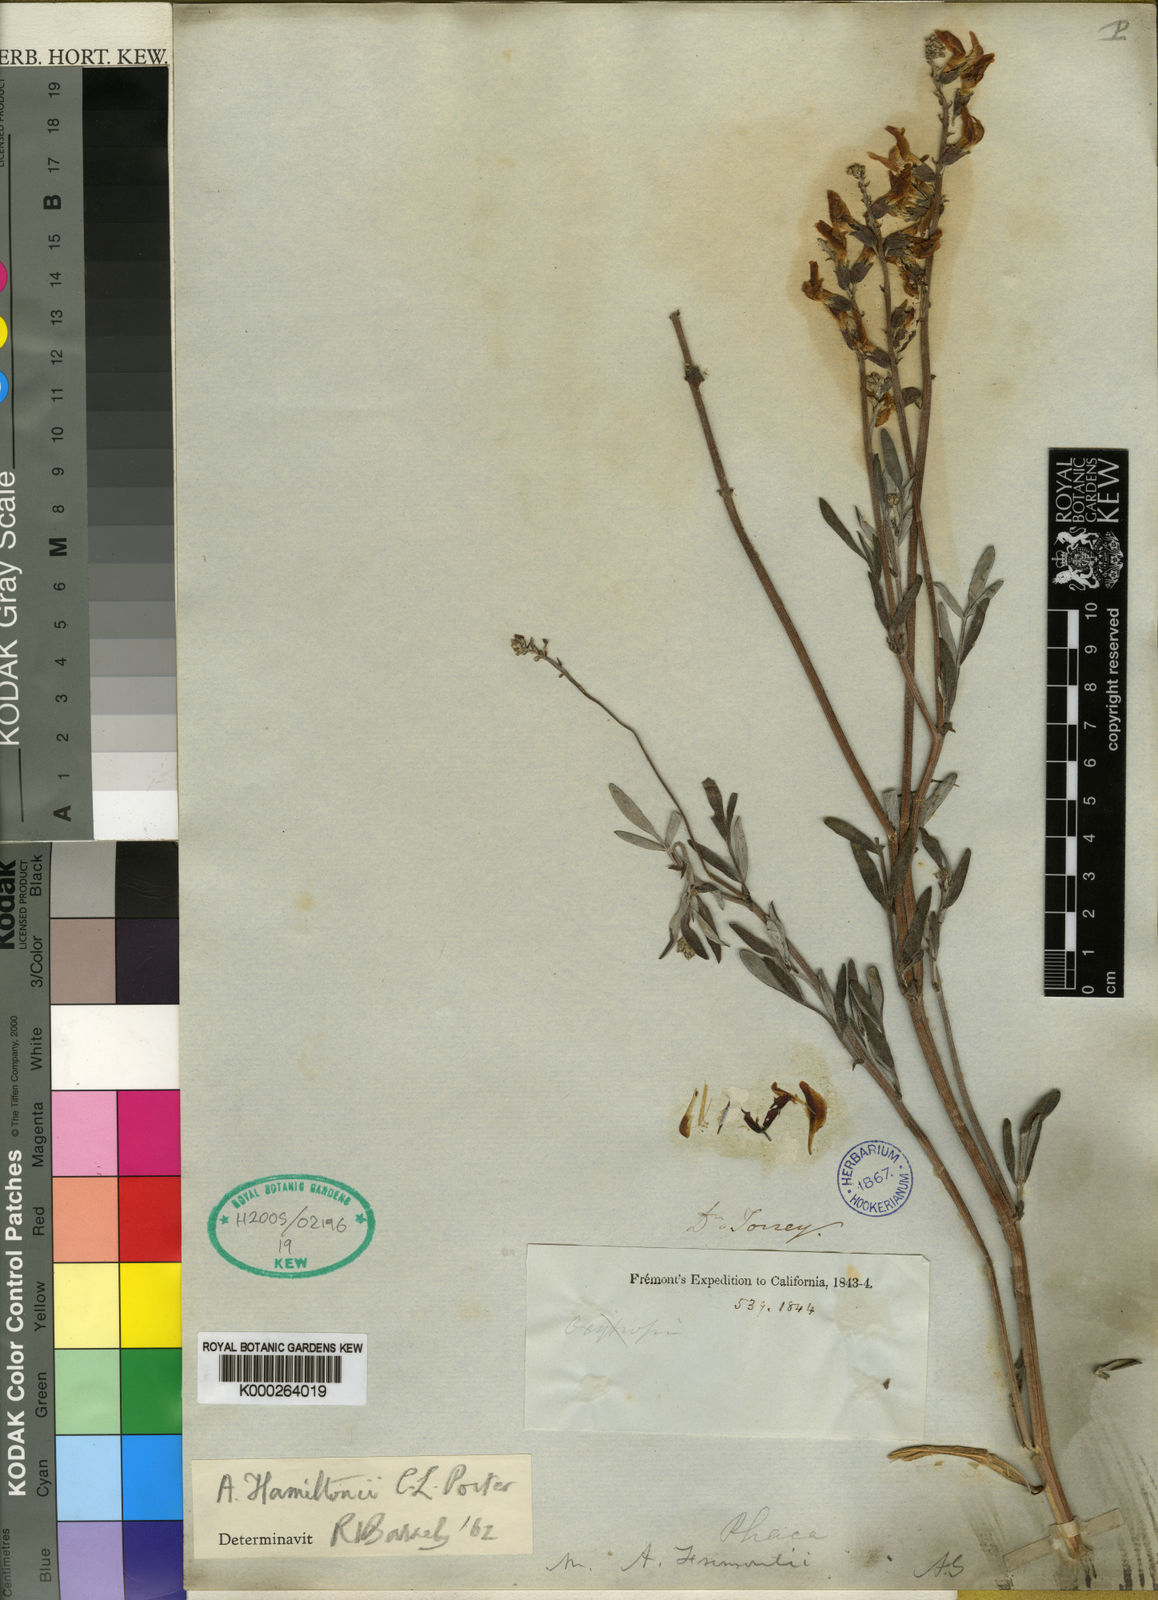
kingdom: Plantae
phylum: Tracheophyta
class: Magnoliopsida
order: Fabales
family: Fabaceae
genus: Astragalus
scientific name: Astragalus hamiltonii
